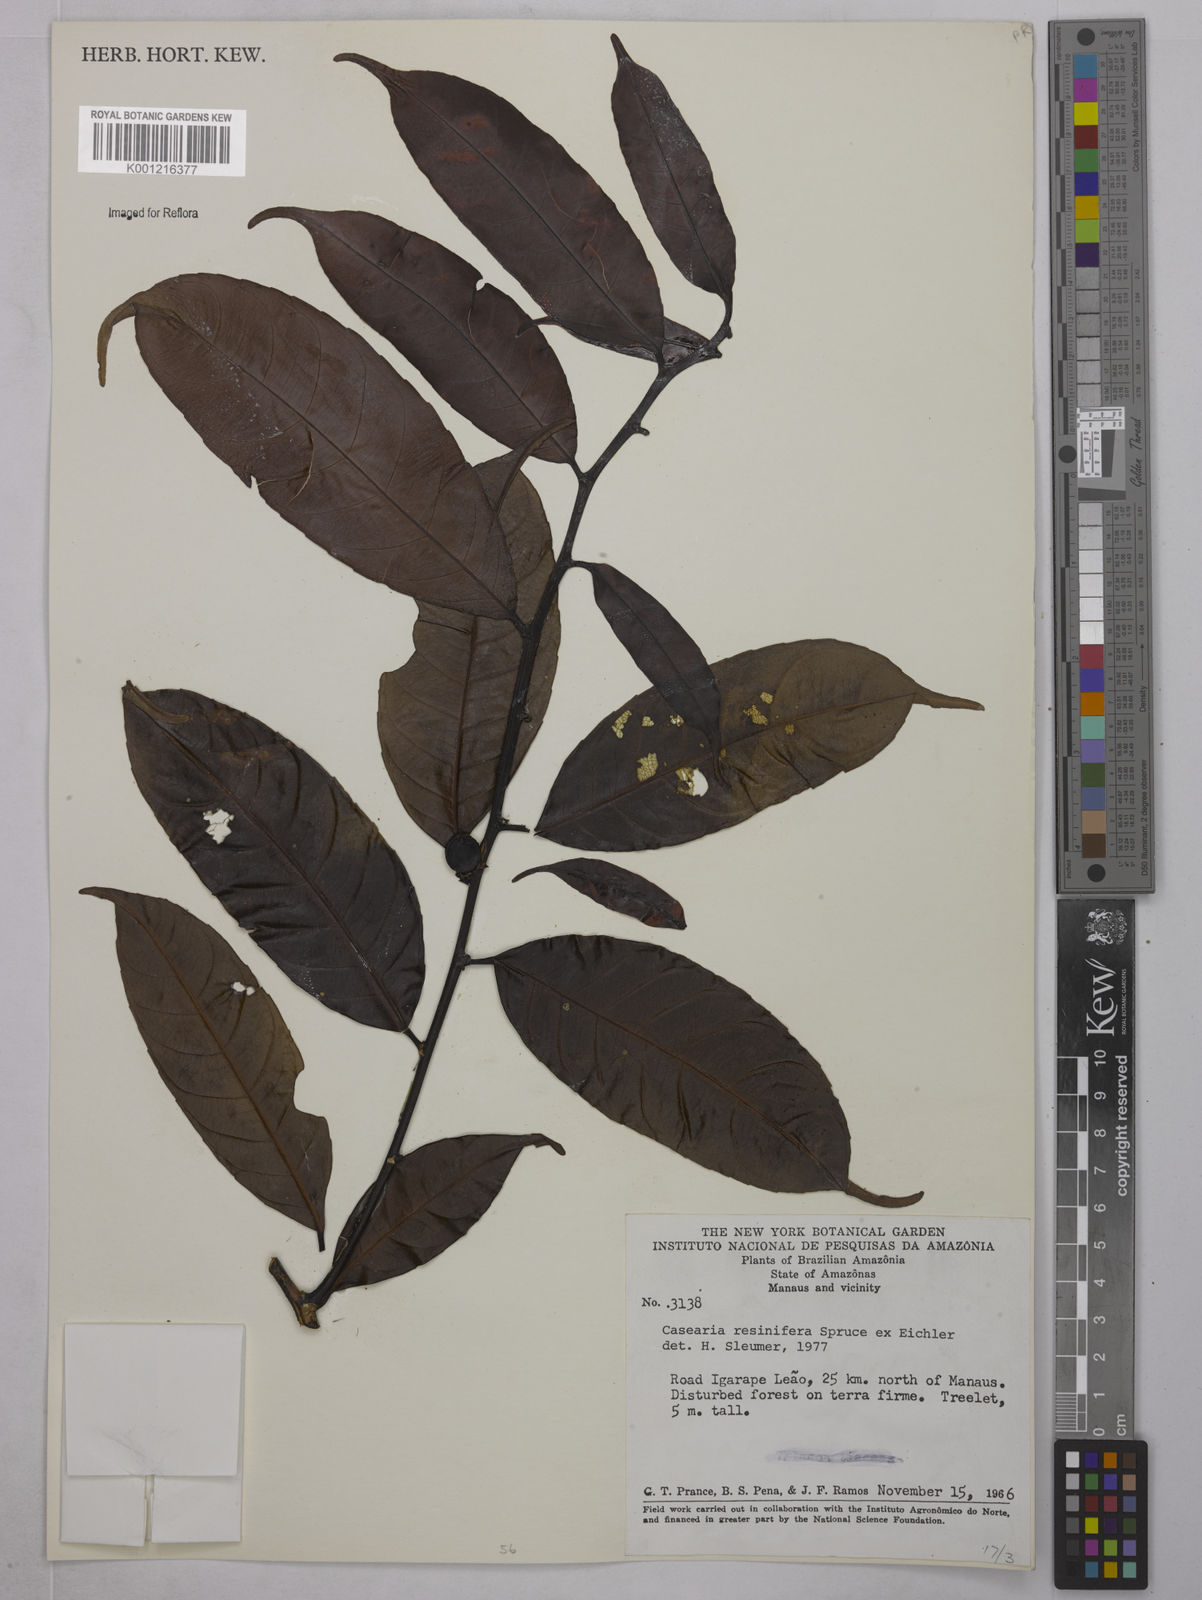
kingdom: Plantae
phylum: Tracheophyta
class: Magnoliopsida
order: Malpighiales
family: Salicaceae
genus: Casearia
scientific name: Casearia resinifera
